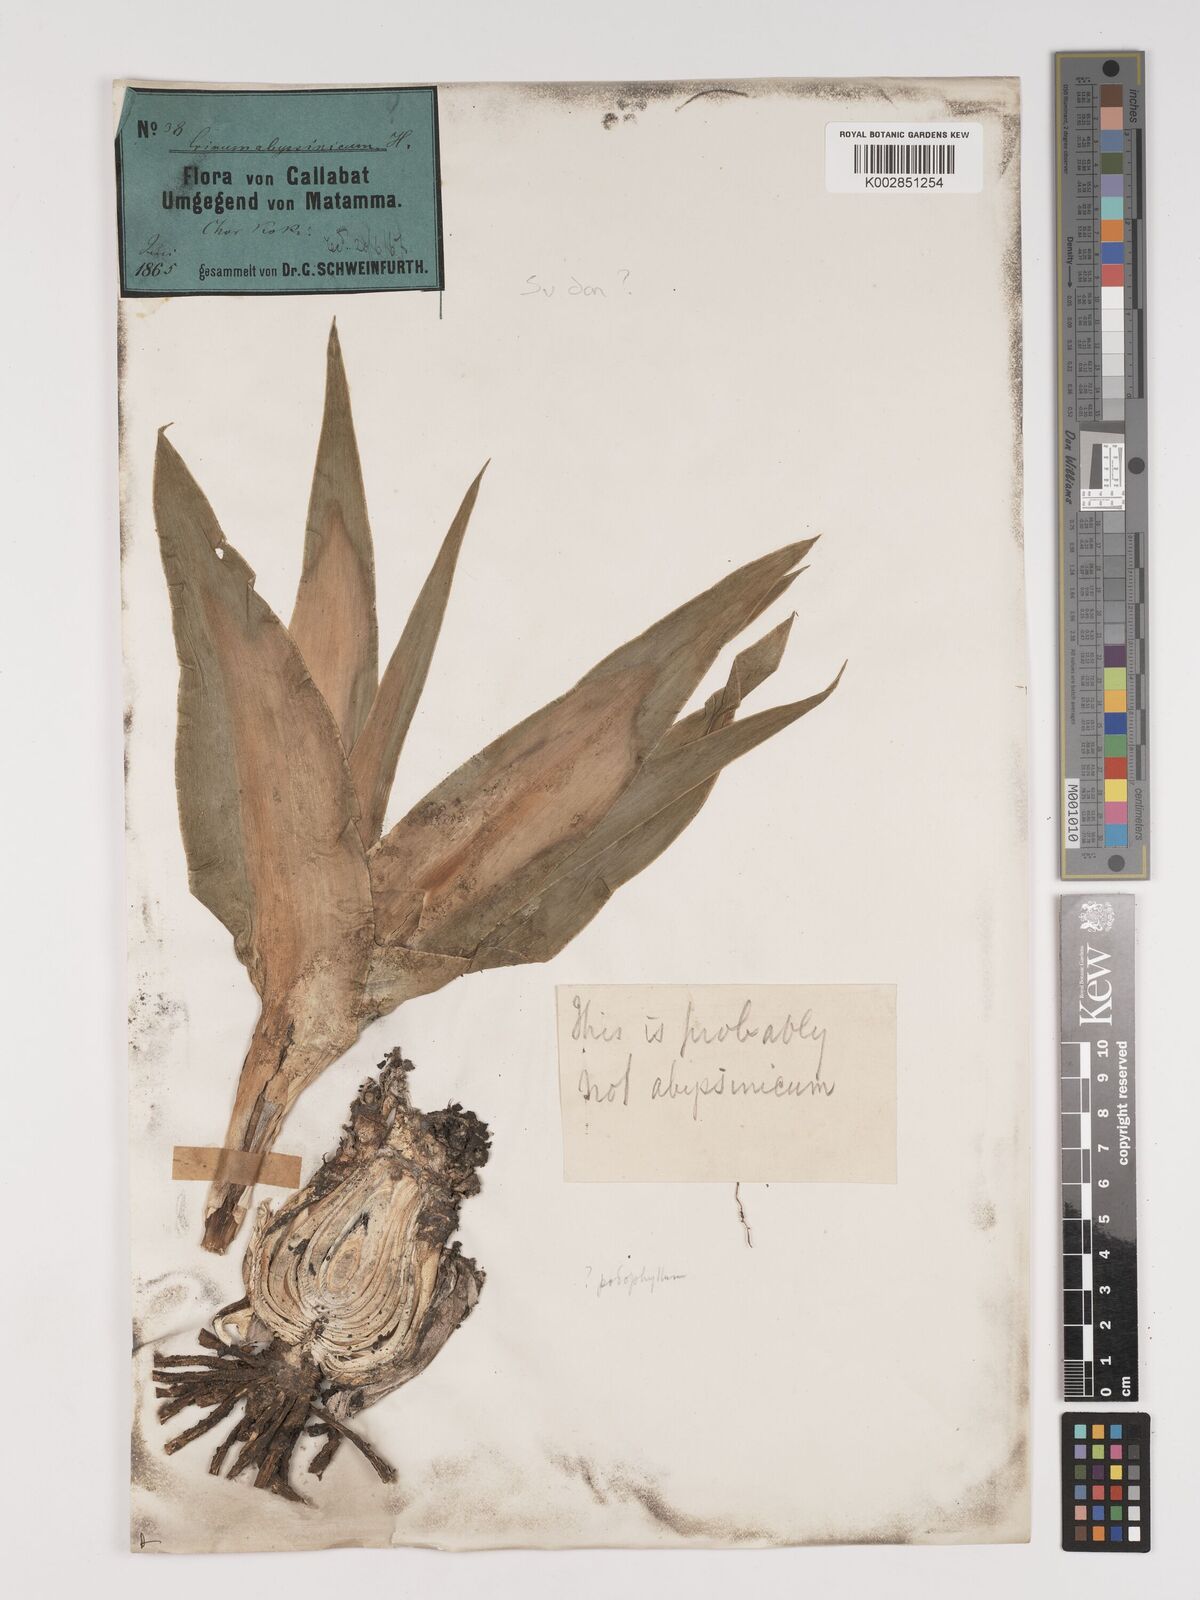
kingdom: Plantae
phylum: Tracheophyta
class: Liliopsida
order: Asparagales
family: Amaryllidaceae
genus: Crinum
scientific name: Crinum
